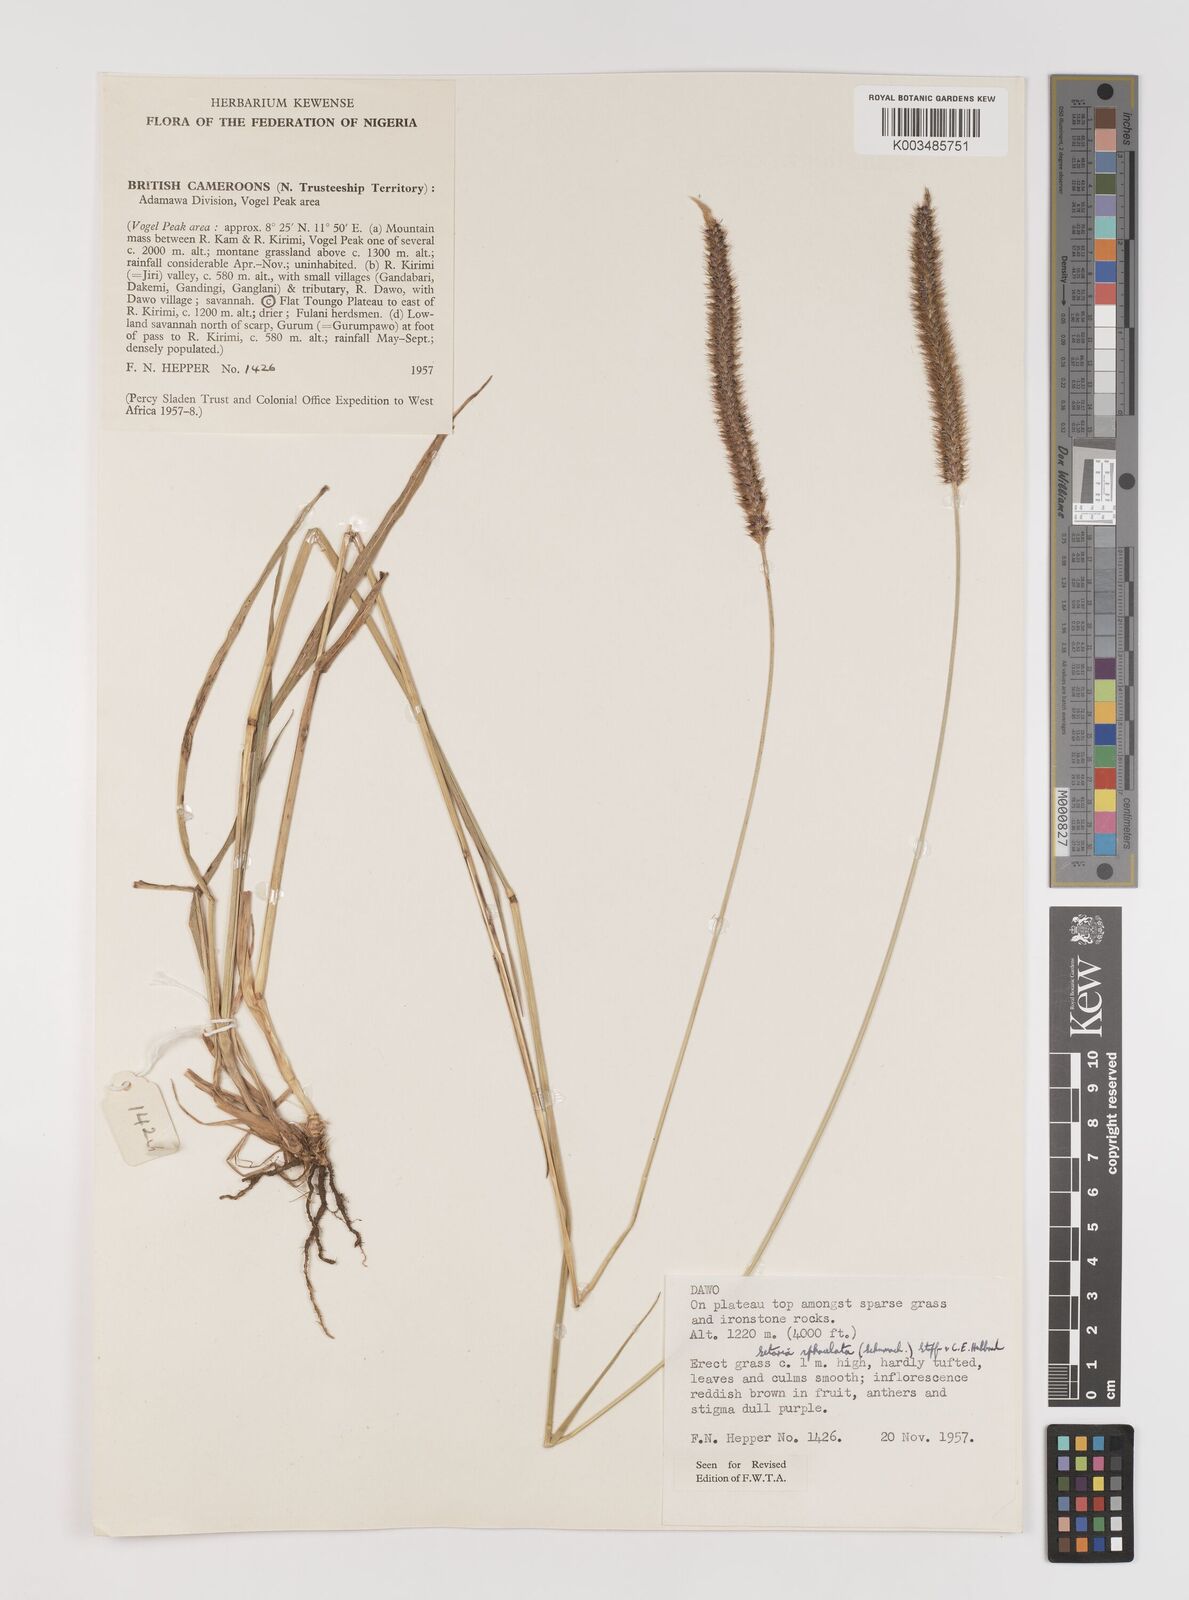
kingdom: Plantae
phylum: Tracheophyta
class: Liliopsida
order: Poales
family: Poaceae
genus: Setaria
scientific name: Setaria sphacelata
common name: African bristlegrass
